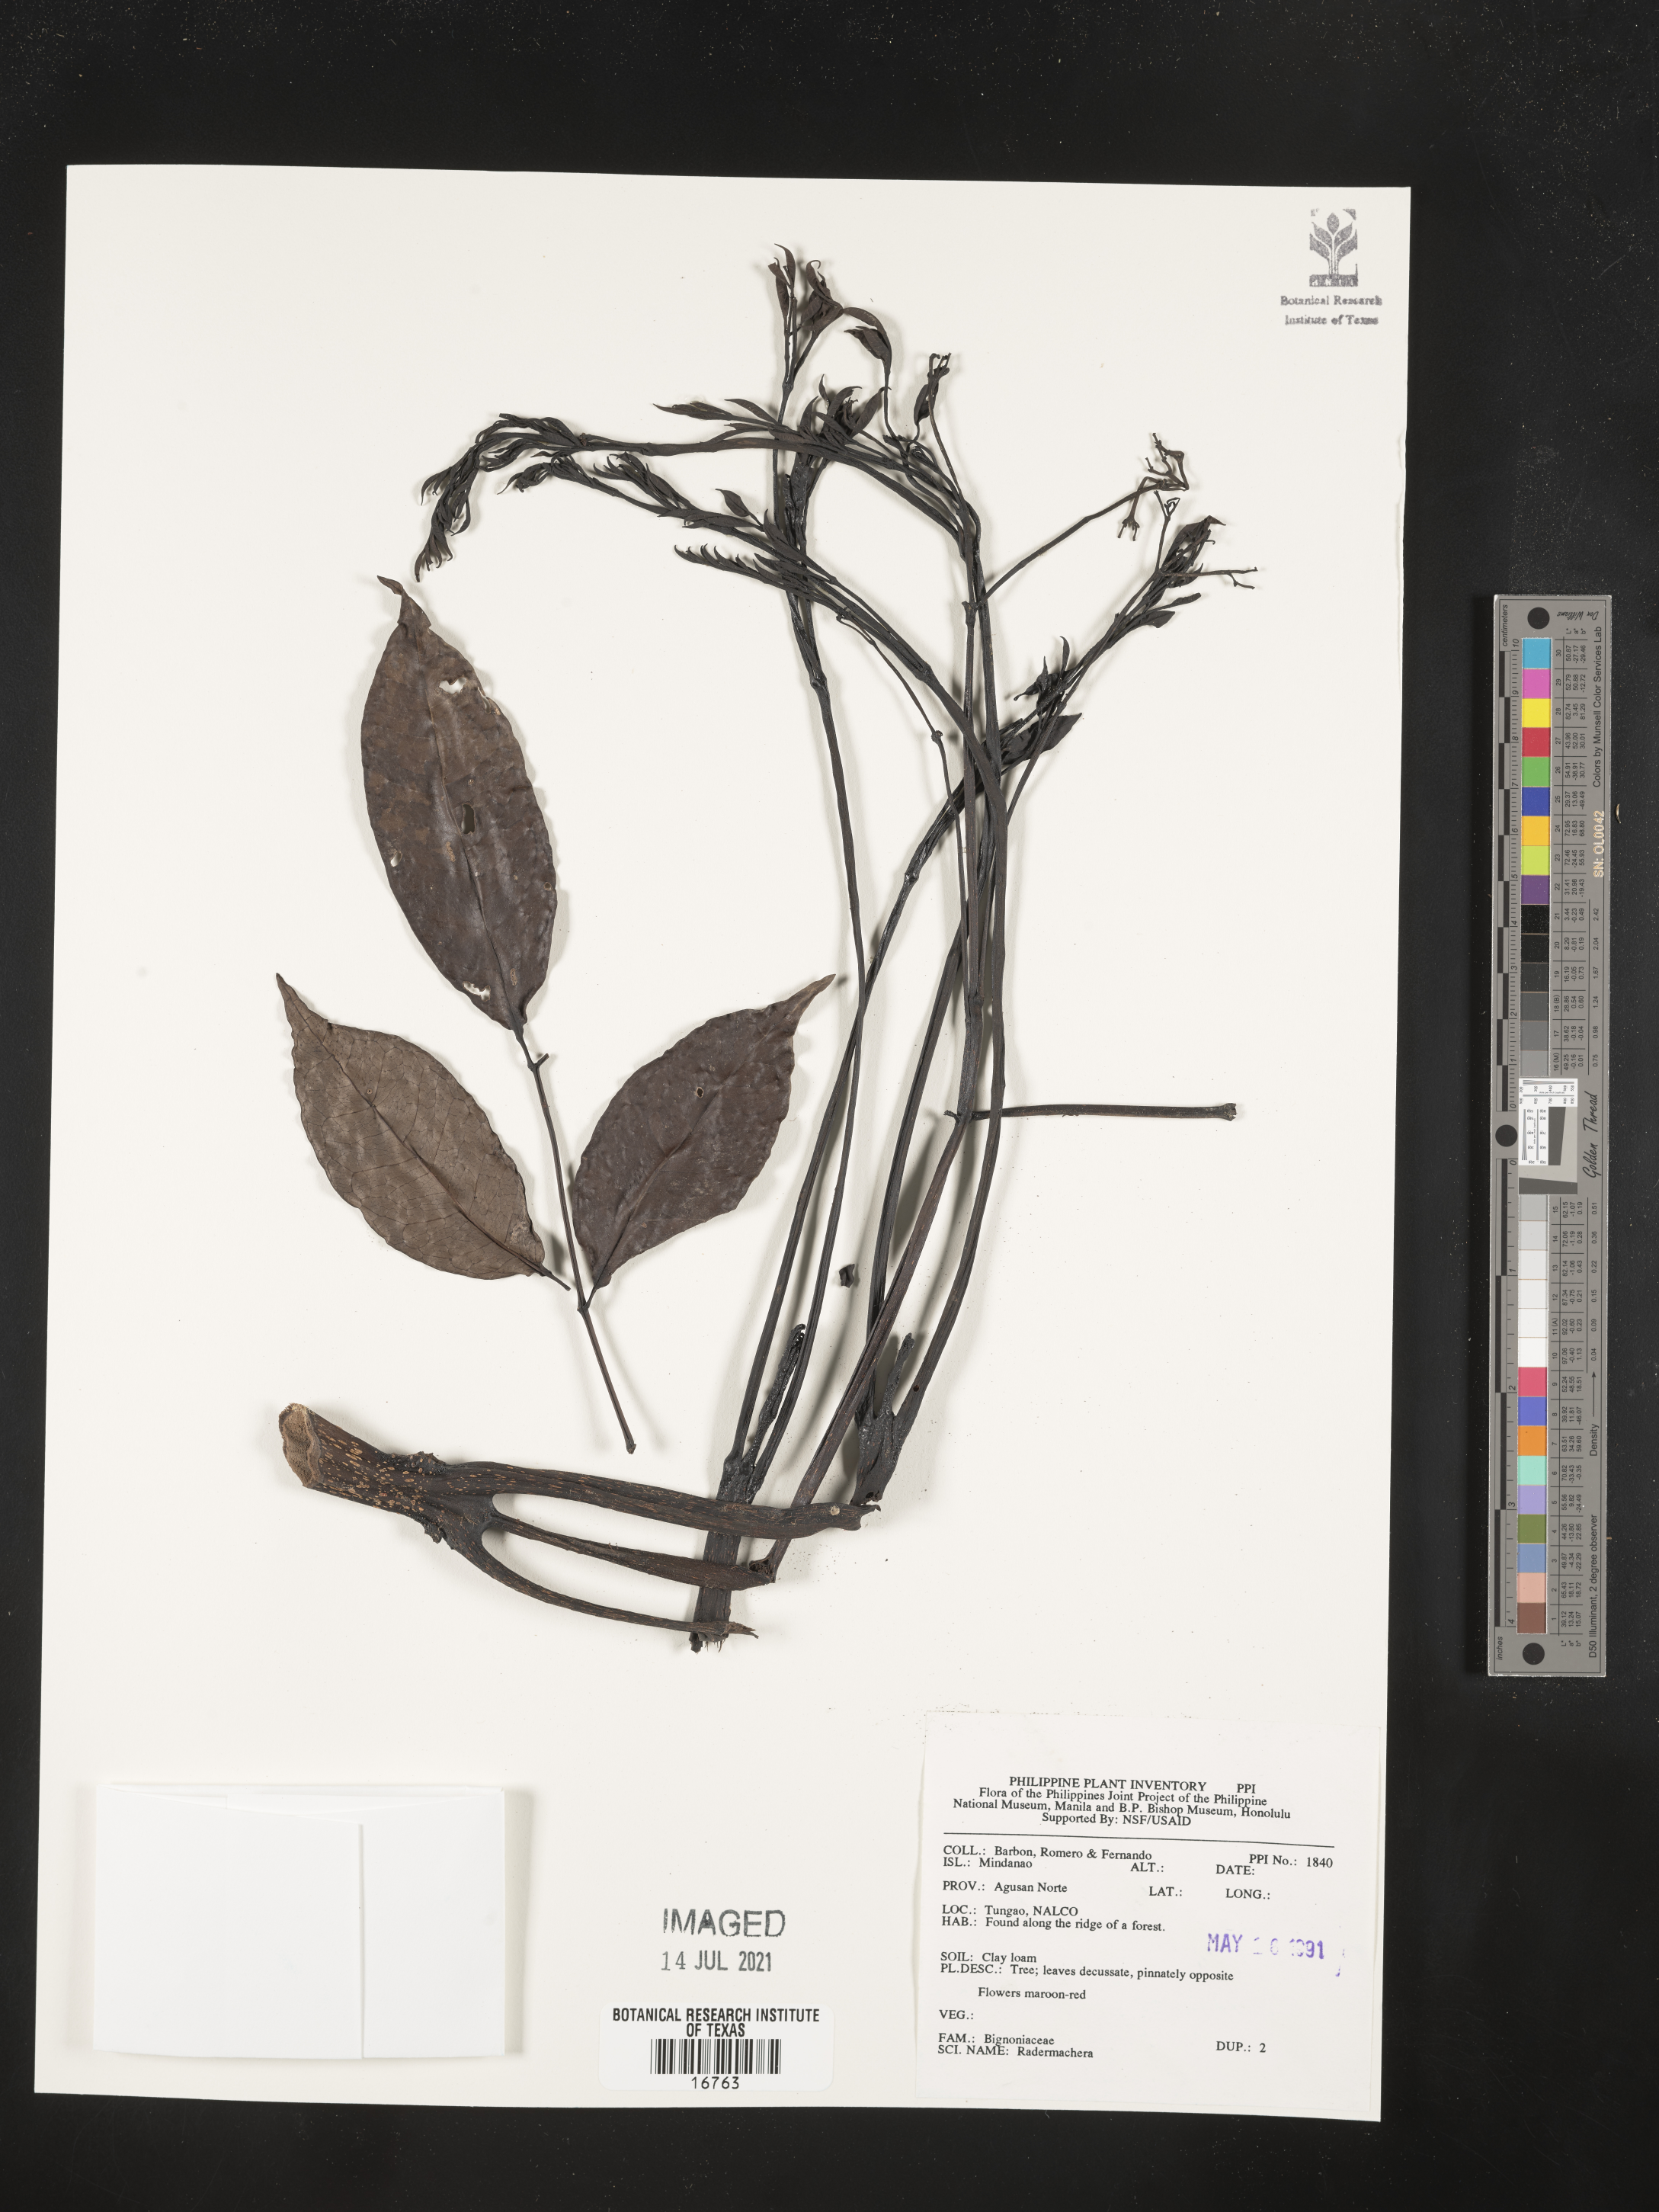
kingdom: Plantae
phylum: Tracheophyta
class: Magnoliopsida
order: Lamiales
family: Bignoniaceae
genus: Radermachera
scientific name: Radermachera
